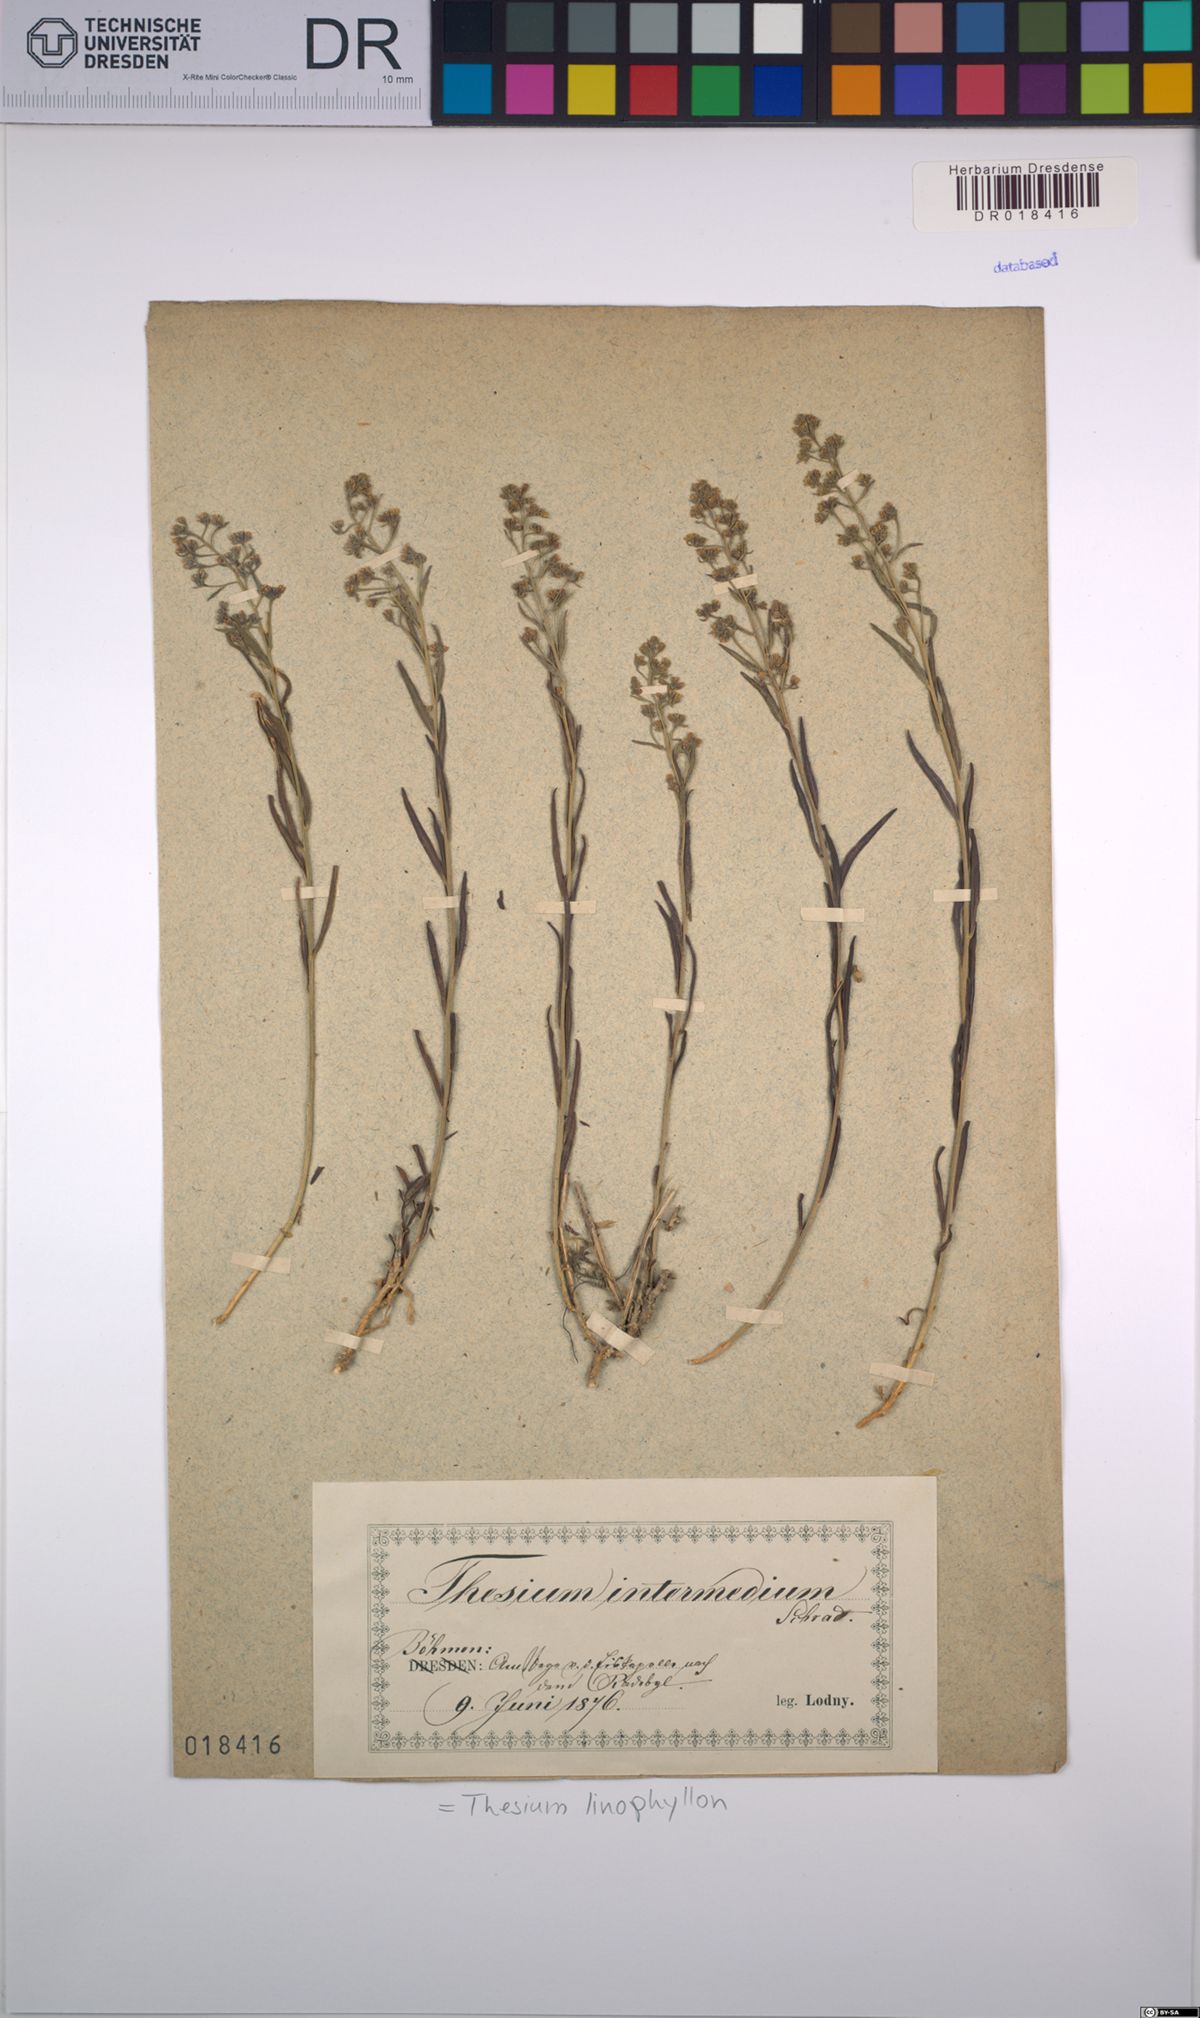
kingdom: Plantae
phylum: Tracheophyta
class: Magnoliopsida
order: Santalales
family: Thesiaceae
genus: Thesium
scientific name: Thesium linophyllon
